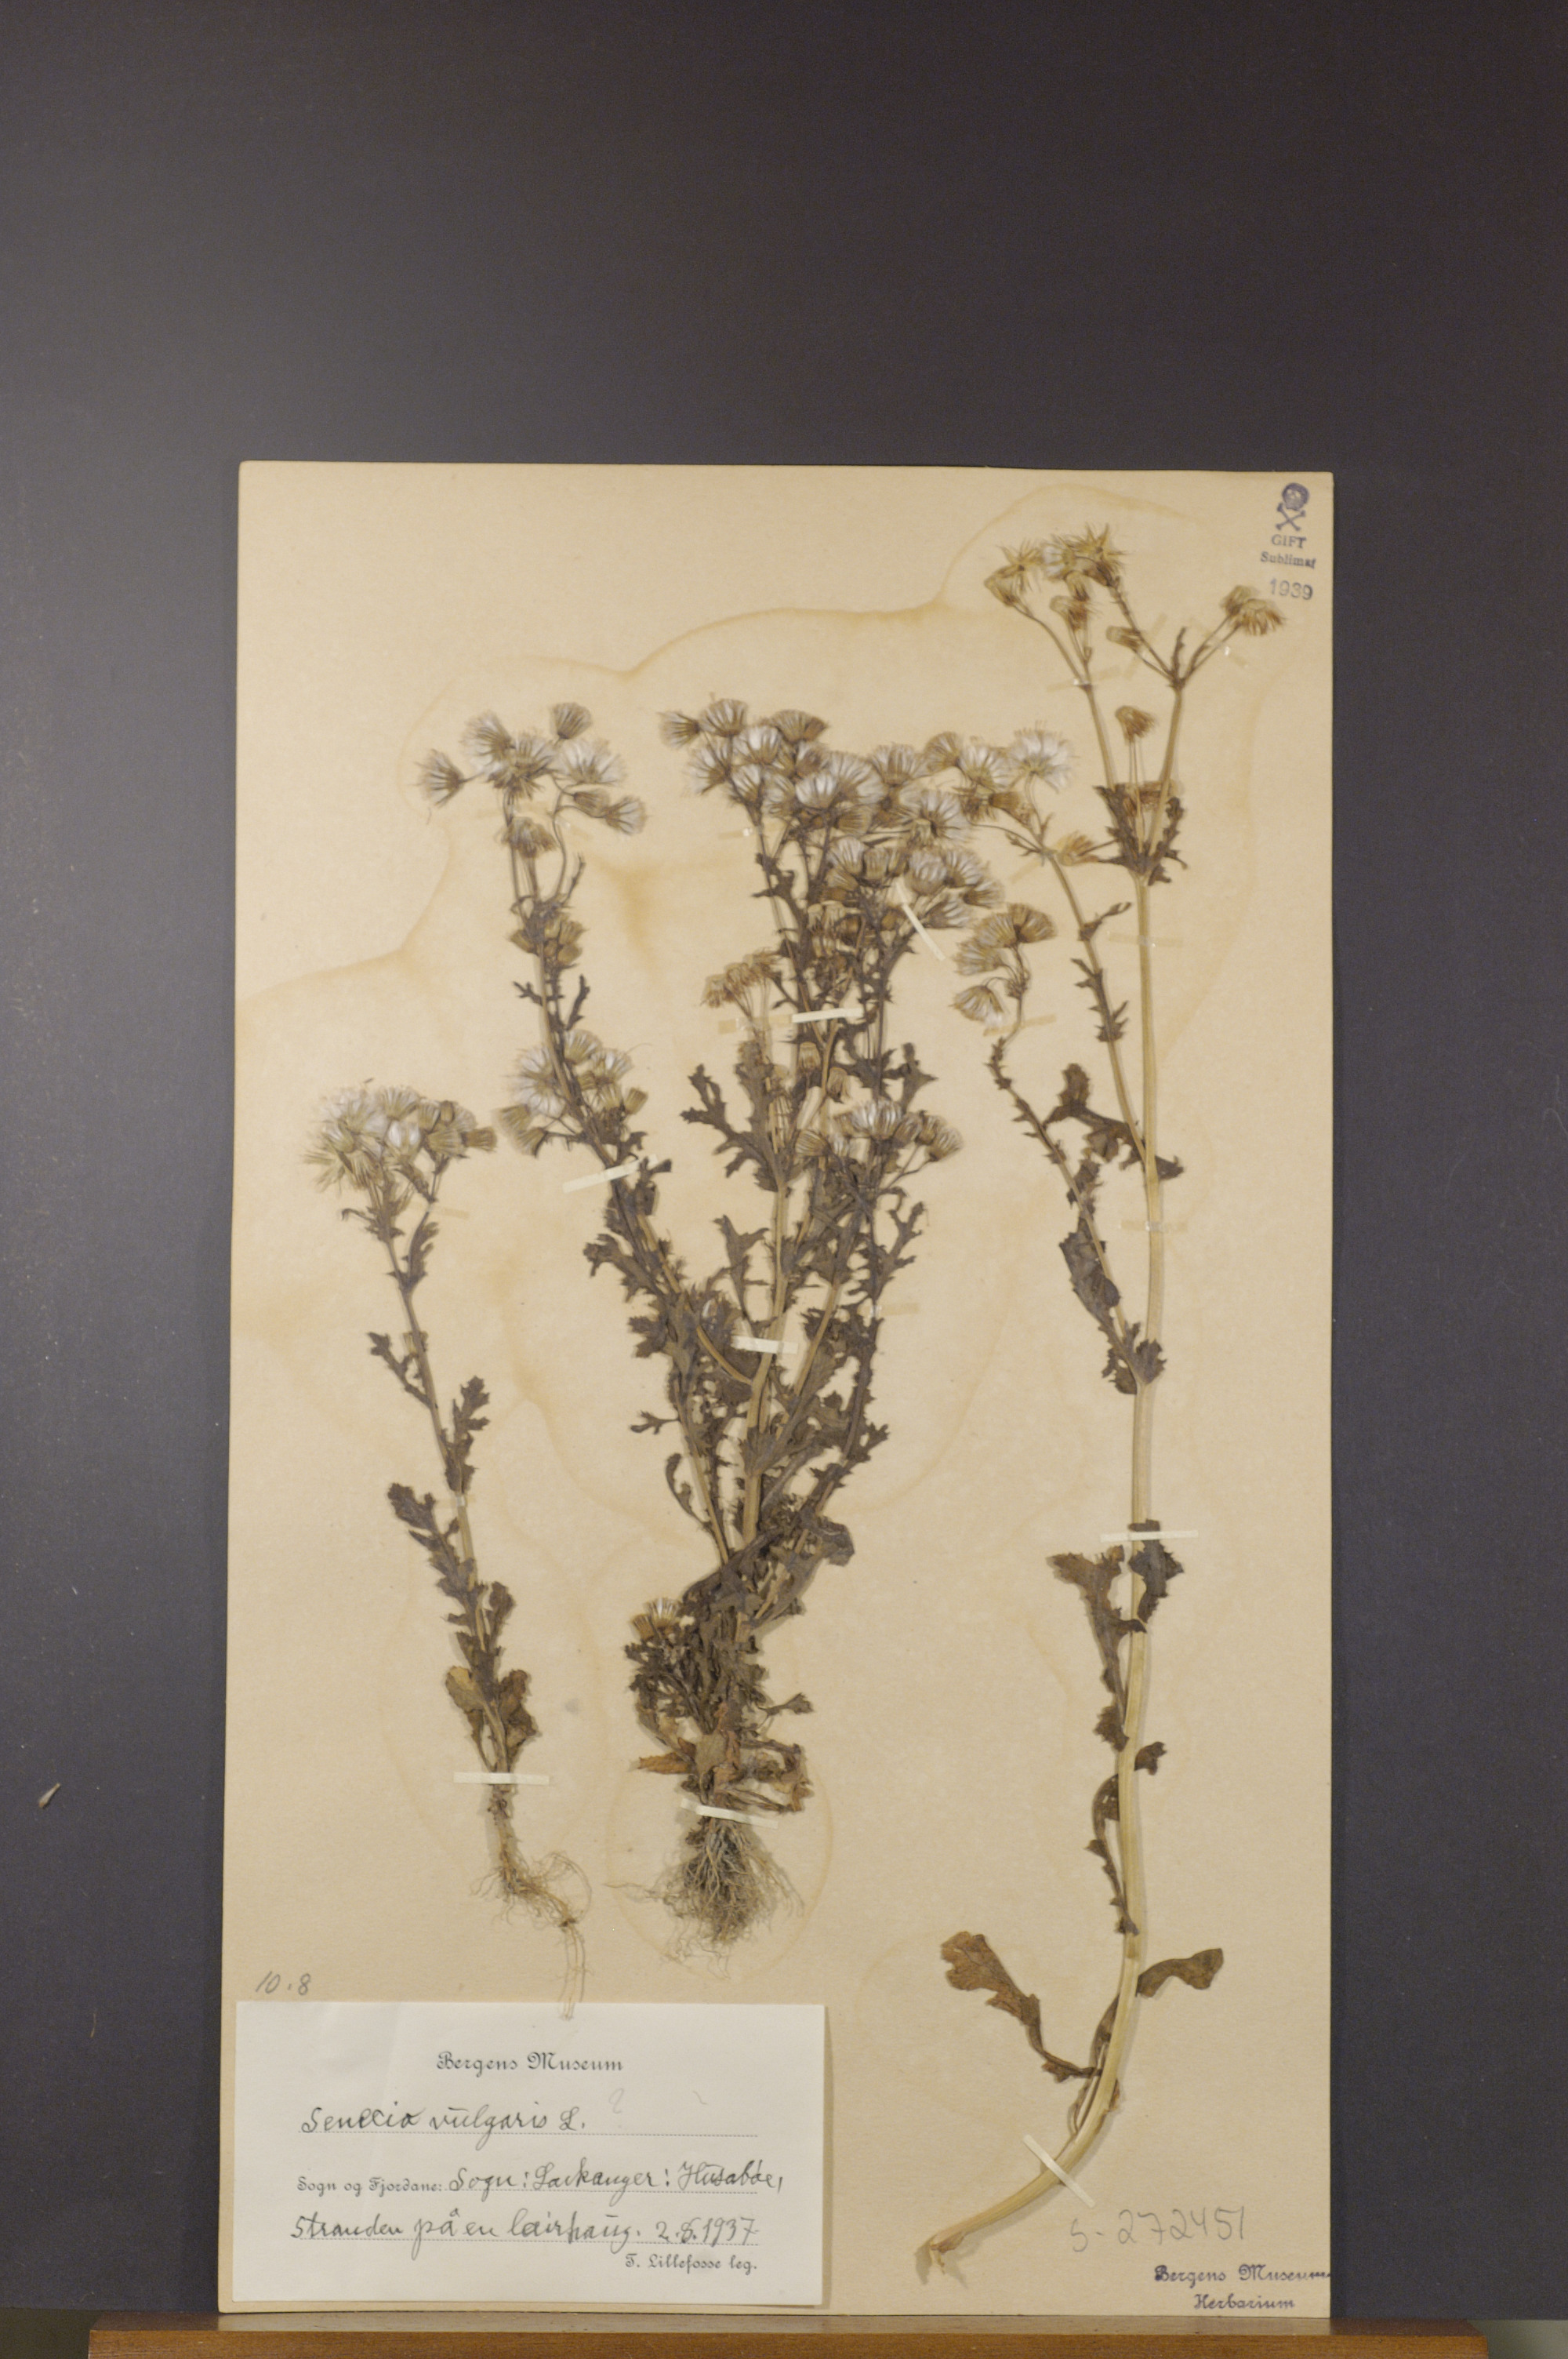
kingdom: Plantae
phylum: Tracheophyta
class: Magnoliopsida
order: Asterales
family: Asteraceae
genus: Senecio
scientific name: Senecio vulgaris
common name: Old-man-in-the-spring
